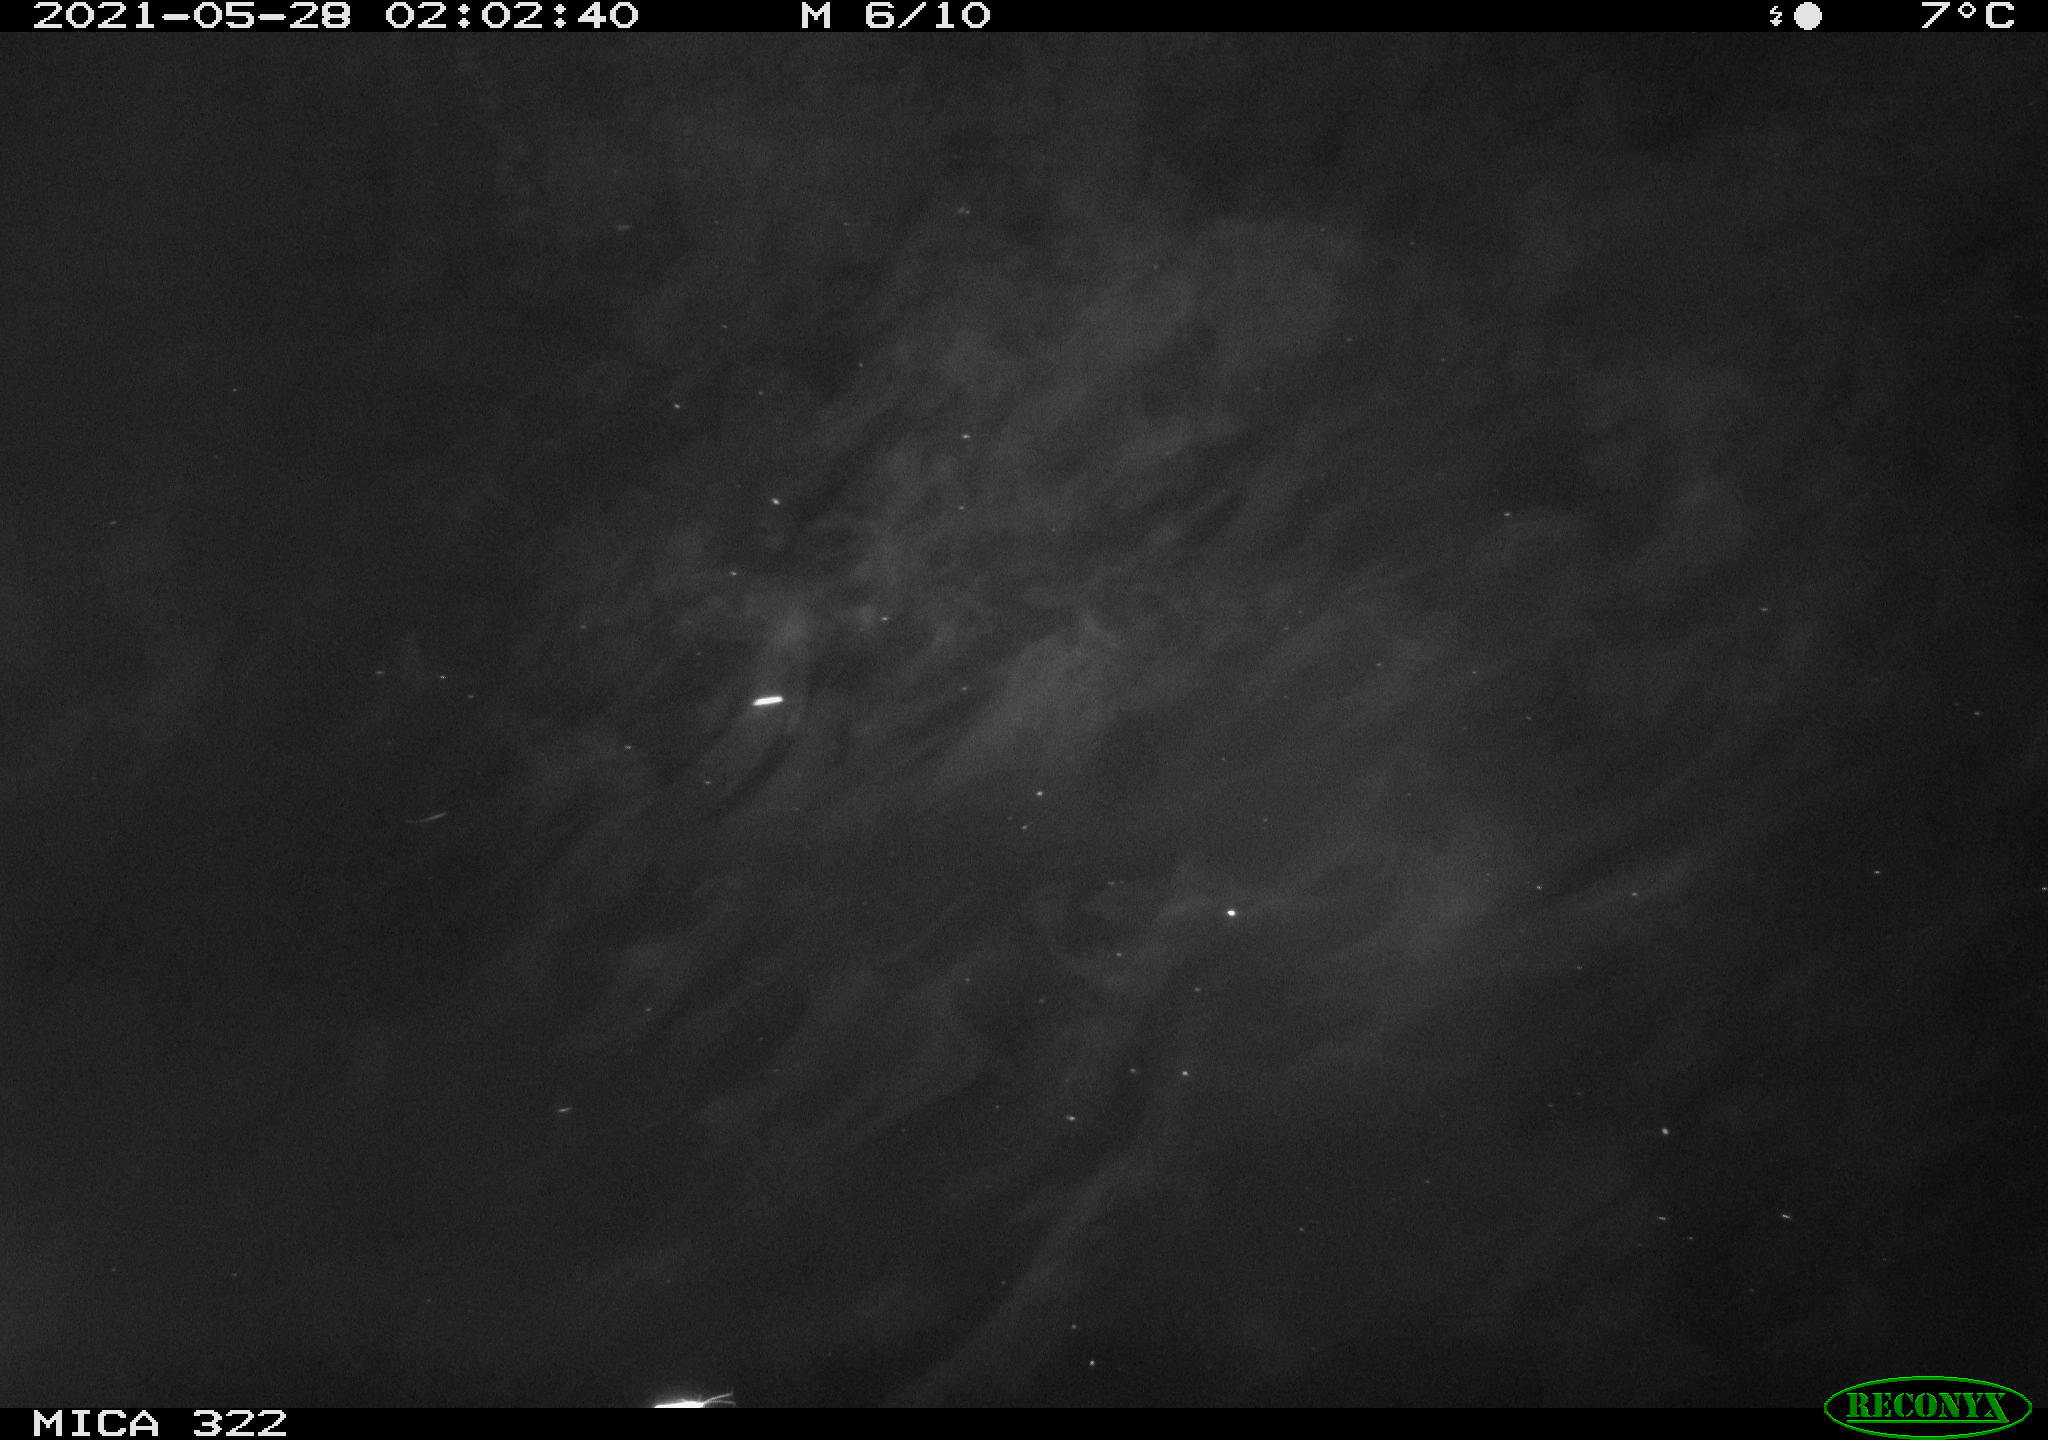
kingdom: Animalia
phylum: Chordata
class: Aves
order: Anseriformes
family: Anatidae
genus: Anas
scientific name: Anas platyrhynchos
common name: Mallard
